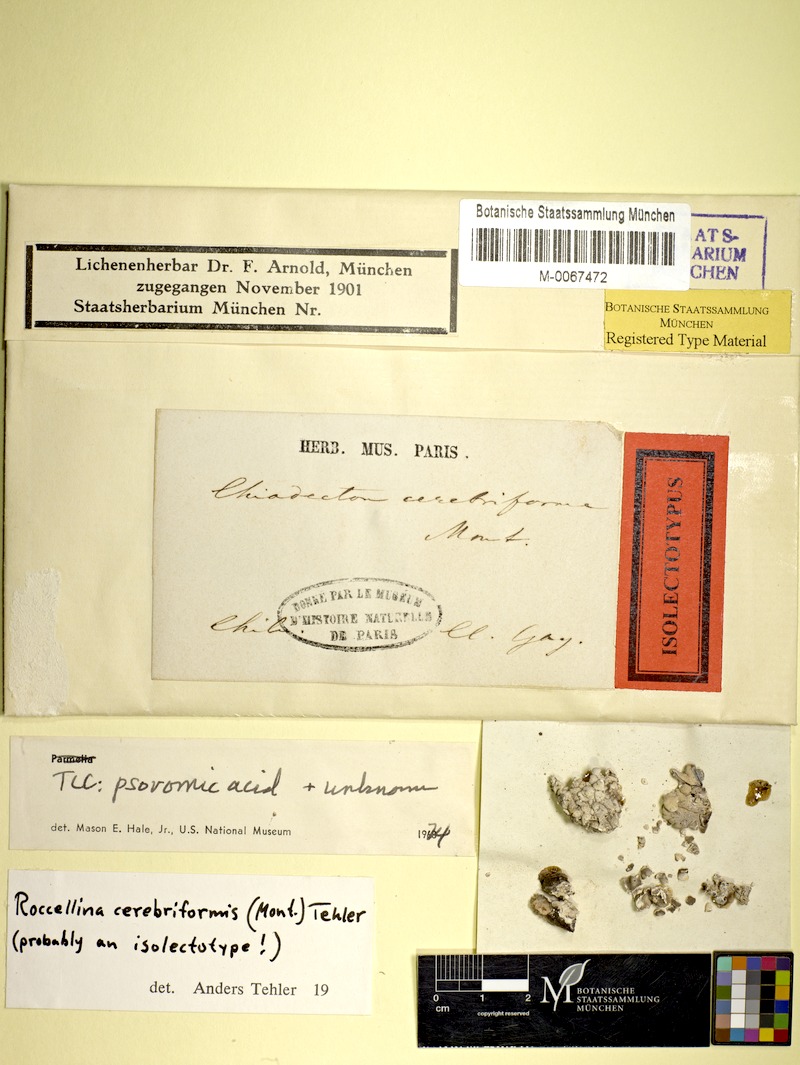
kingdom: Fungi
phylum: Ascomycota
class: Arthoniomycetes
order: Arthoniales
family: Roccellaceae
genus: Roccellina
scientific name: Roccellina cerebriformis
